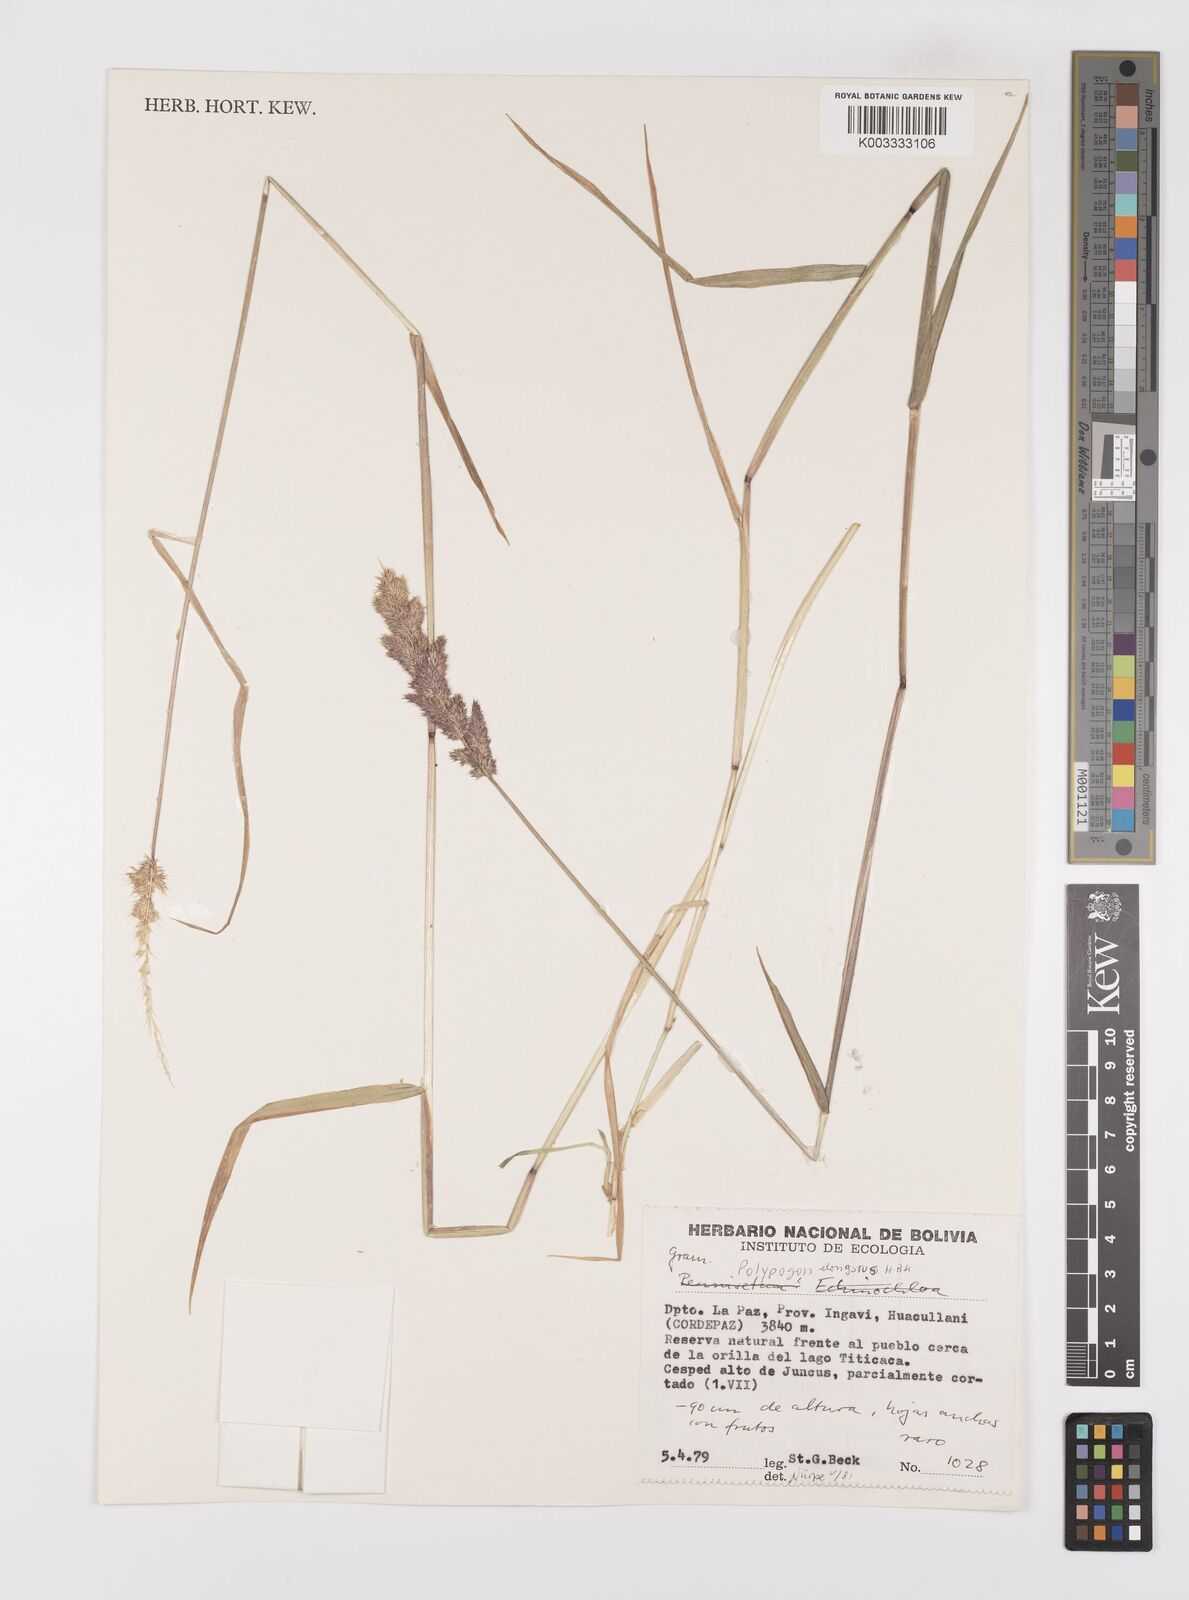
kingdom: Plantae
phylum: Tracheophyta
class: Liliopsida
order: Poales
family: Poaceae
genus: Polypogon
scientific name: Polypogon interruptus
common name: Ditch polypogon
